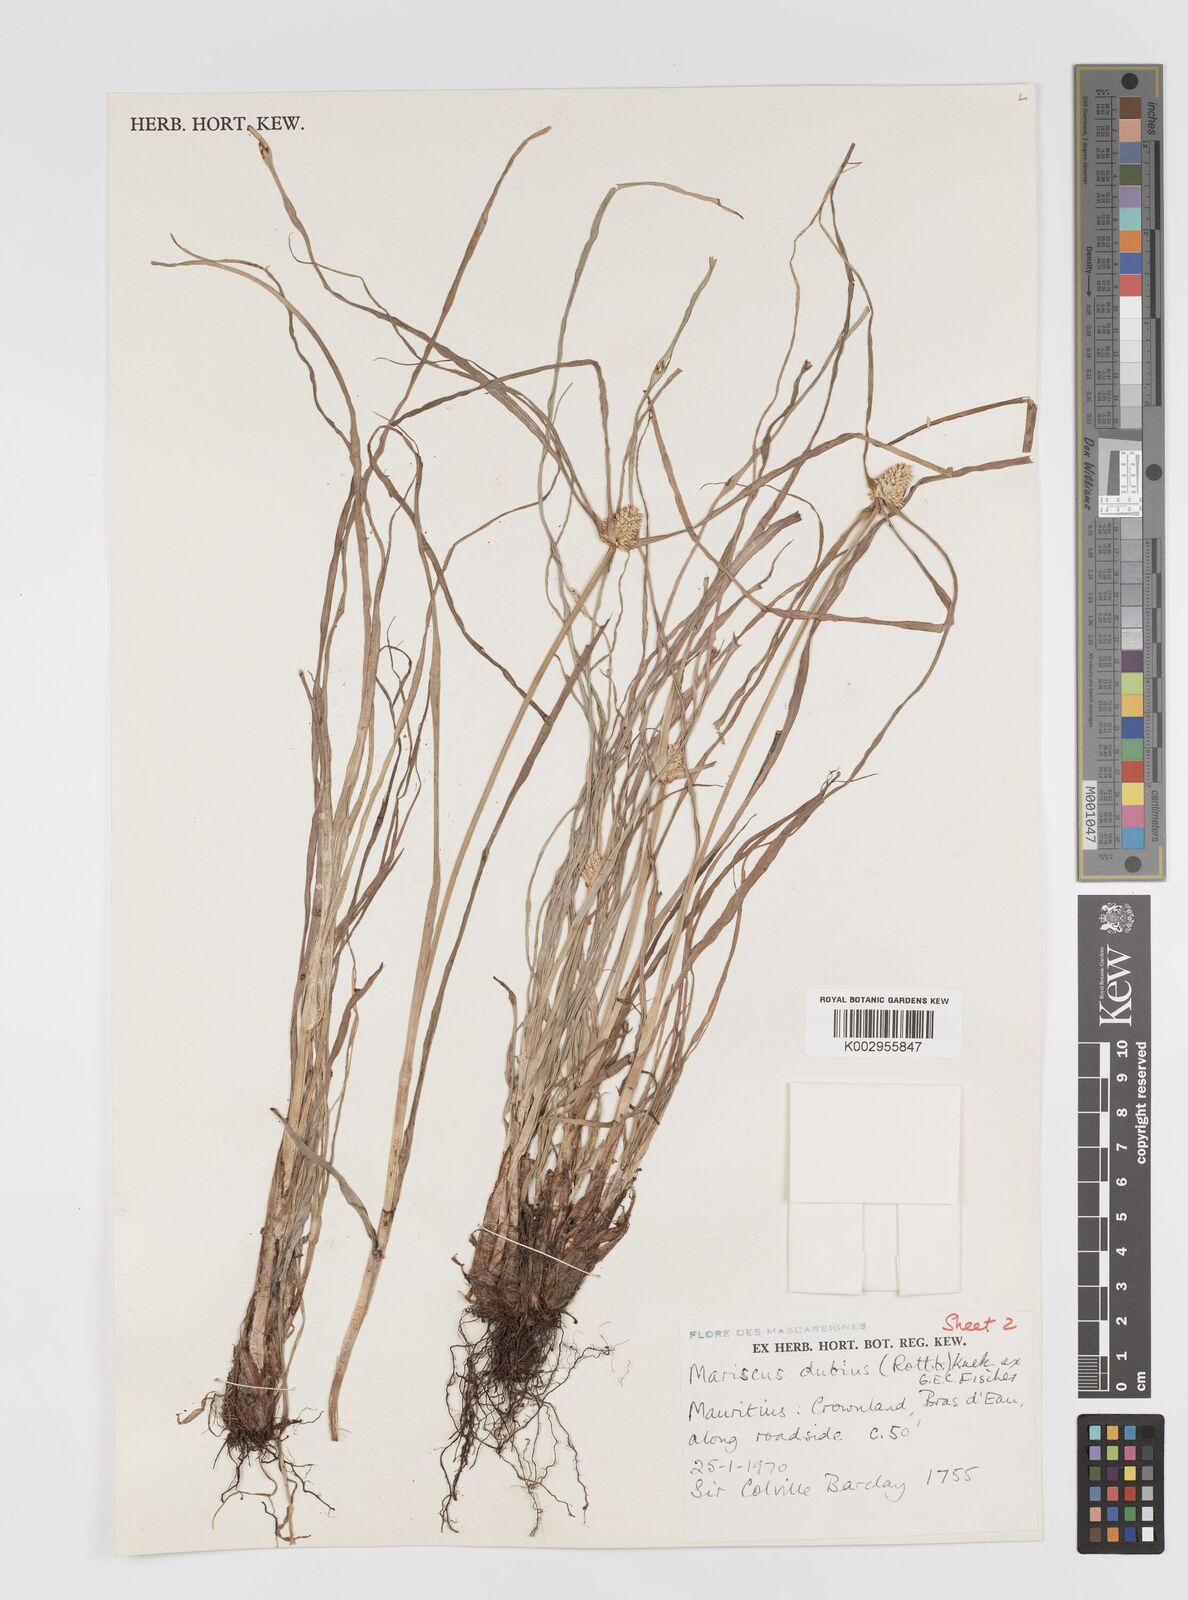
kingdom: Plantae
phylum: Tracheophyta
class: Liliopsida
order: Poales
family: Cyperaceae
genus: Cyperus
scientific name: Cyperus dubius
